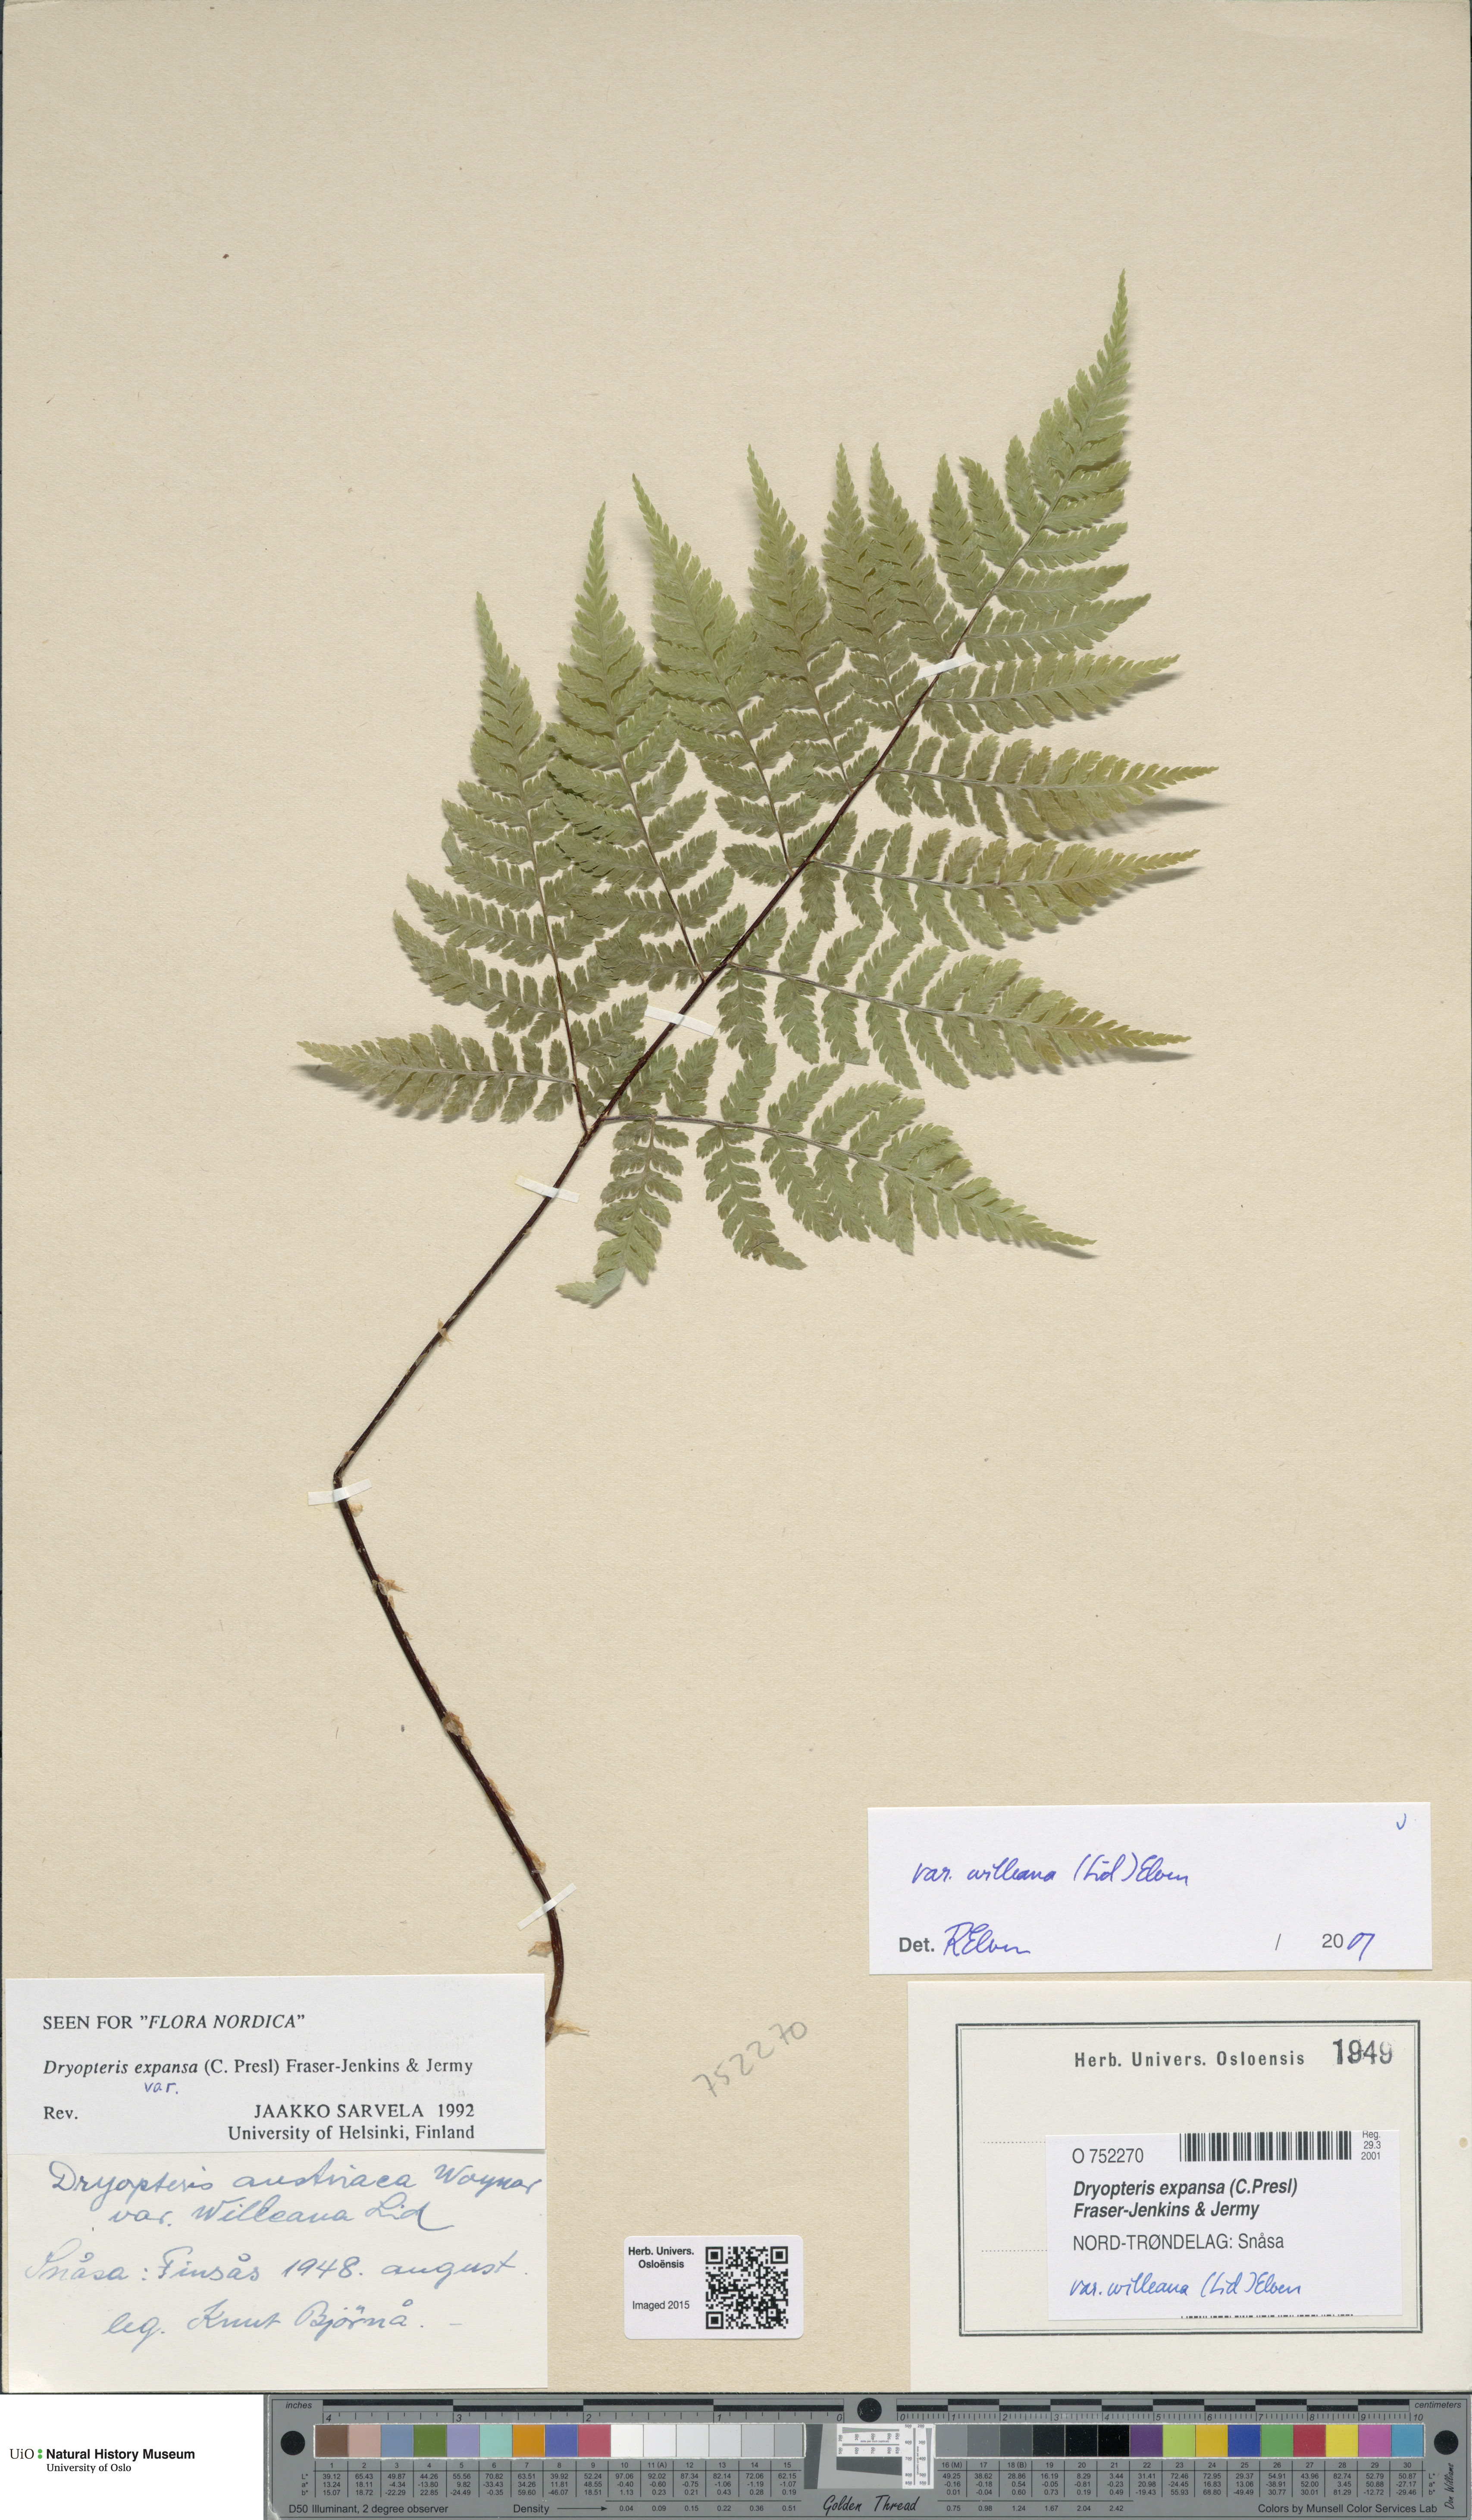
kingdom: Plantae
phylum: Tracheophyta
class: Polypodiopsida
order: Polypodiales
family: Dryopteridaceae
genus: Dryopteris
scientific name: Dryopteris expansa
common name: Northern buckler fern
